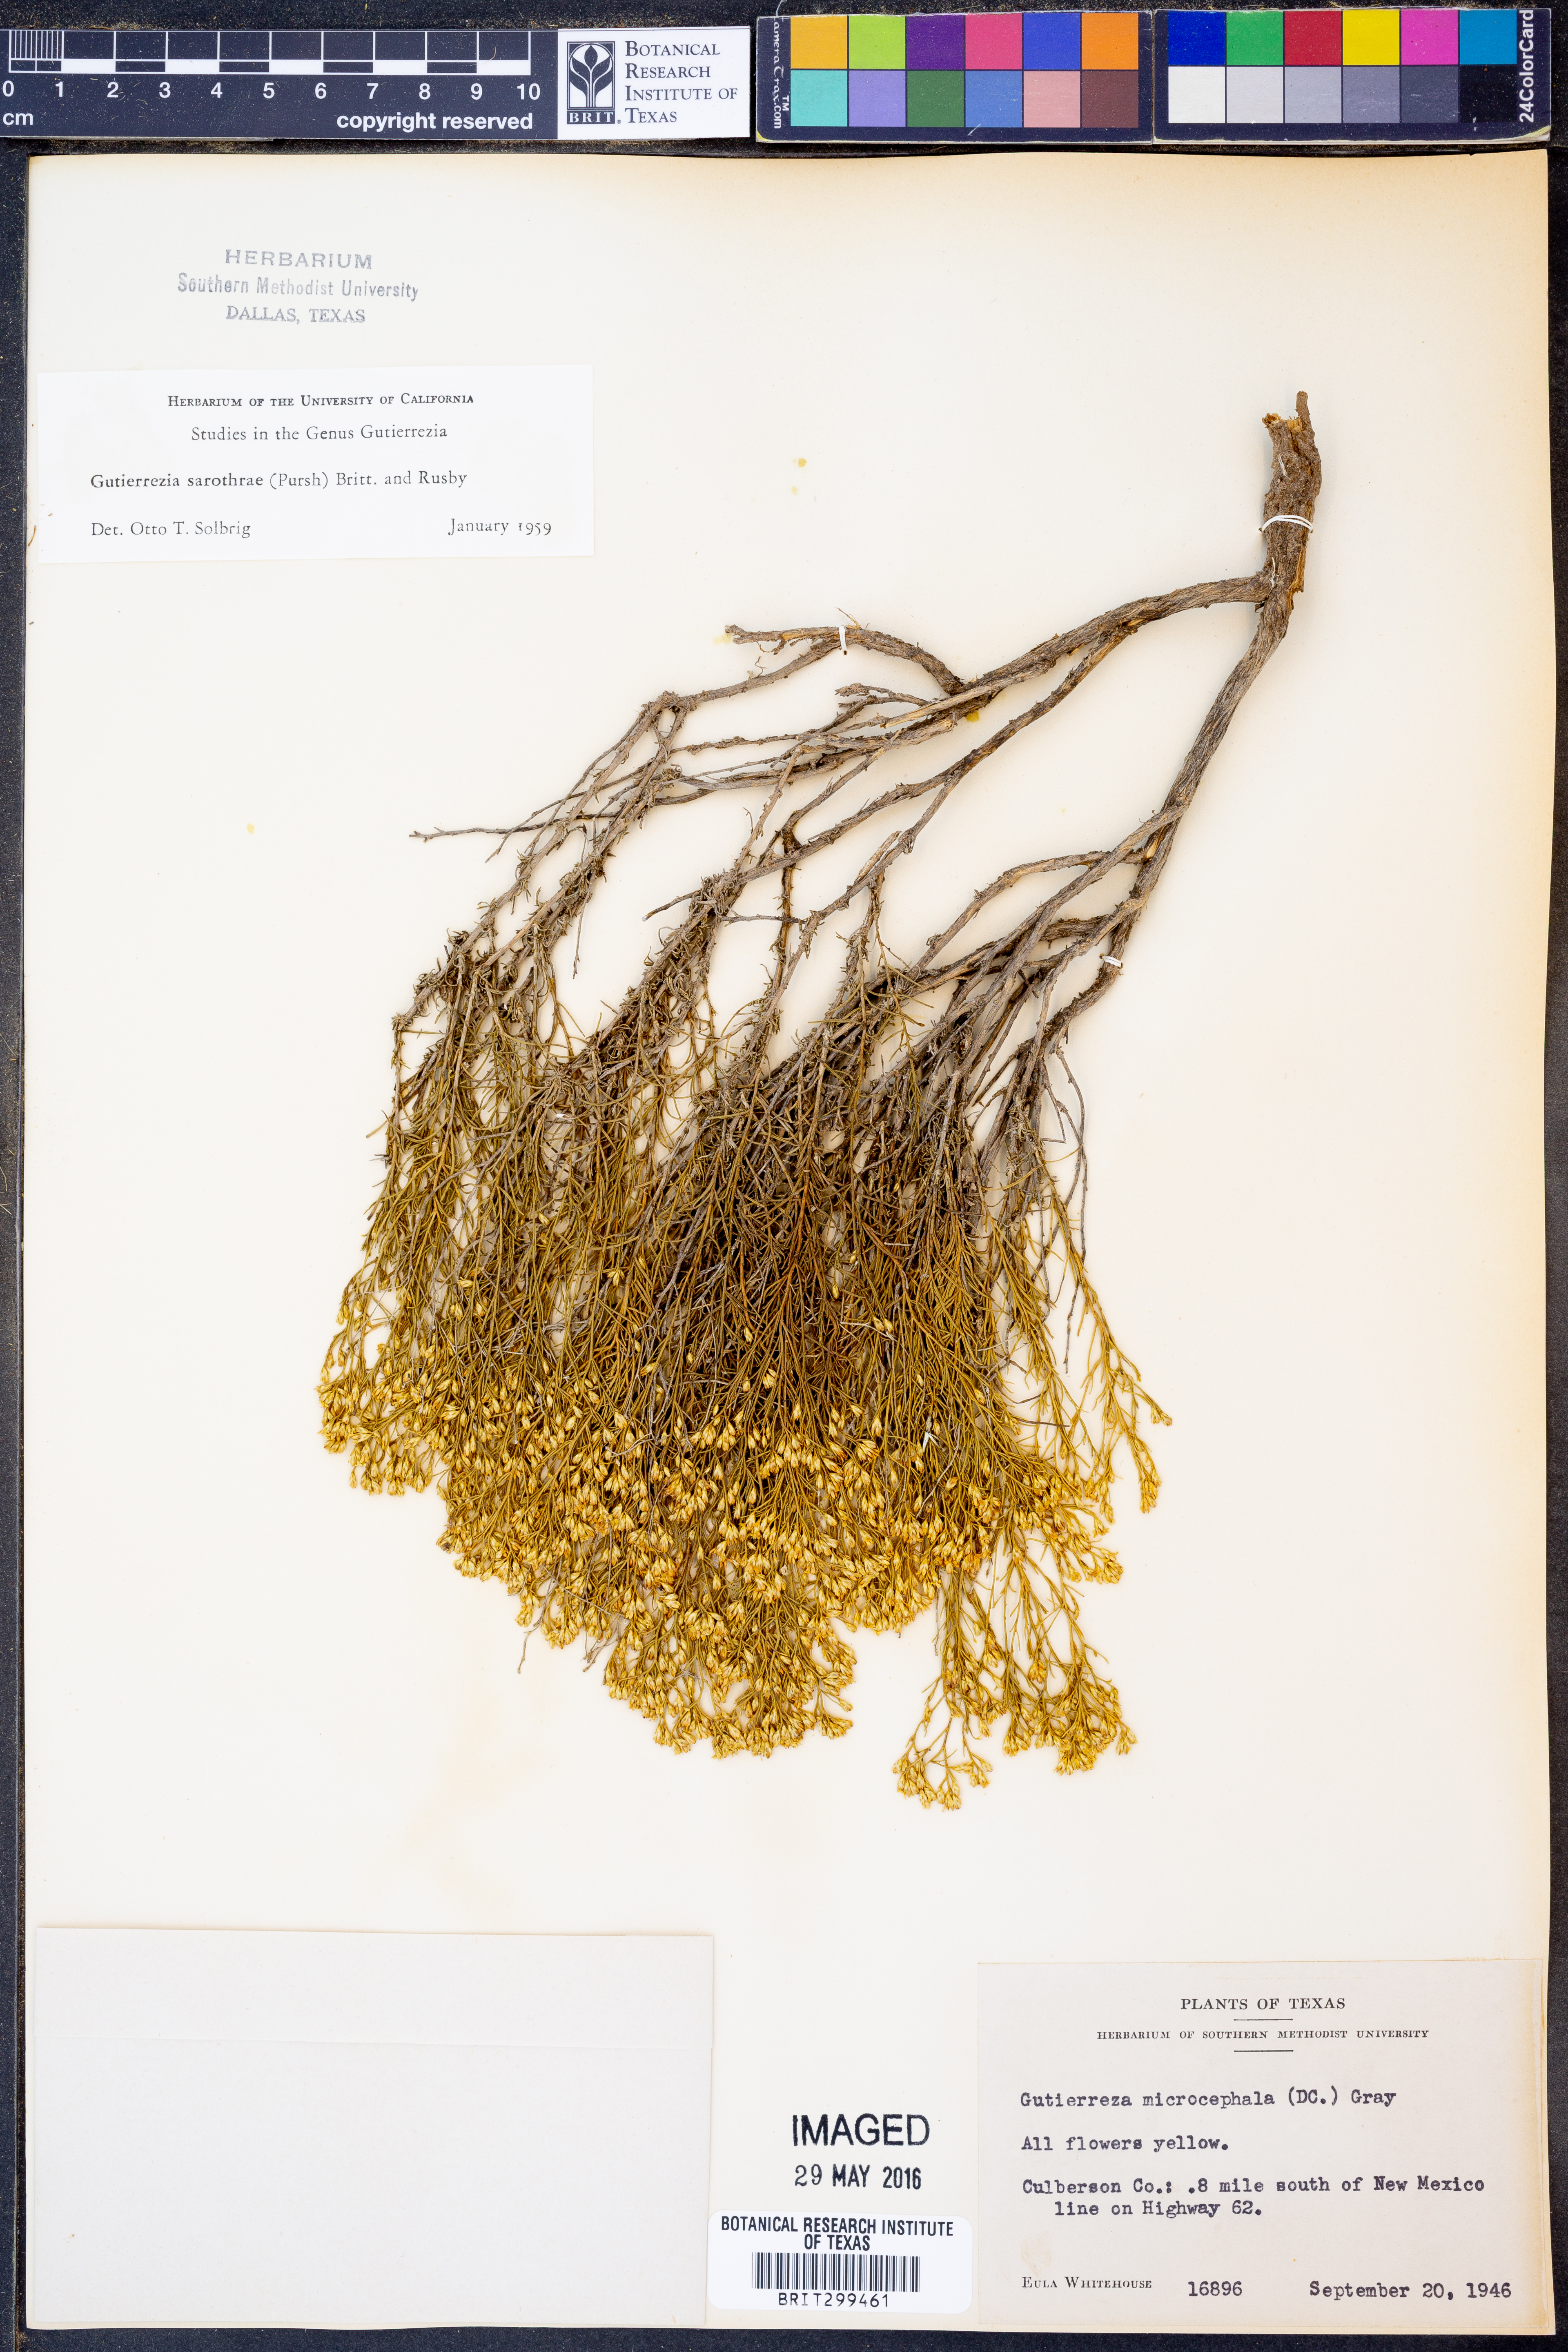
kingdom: Plantae
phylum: Tracheophyta
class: Magnoliopsida
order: Asterales
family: Asteraceae
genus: Gutierrezia
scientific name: Gutierrezia sarothrae
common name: Broom snakeweed
